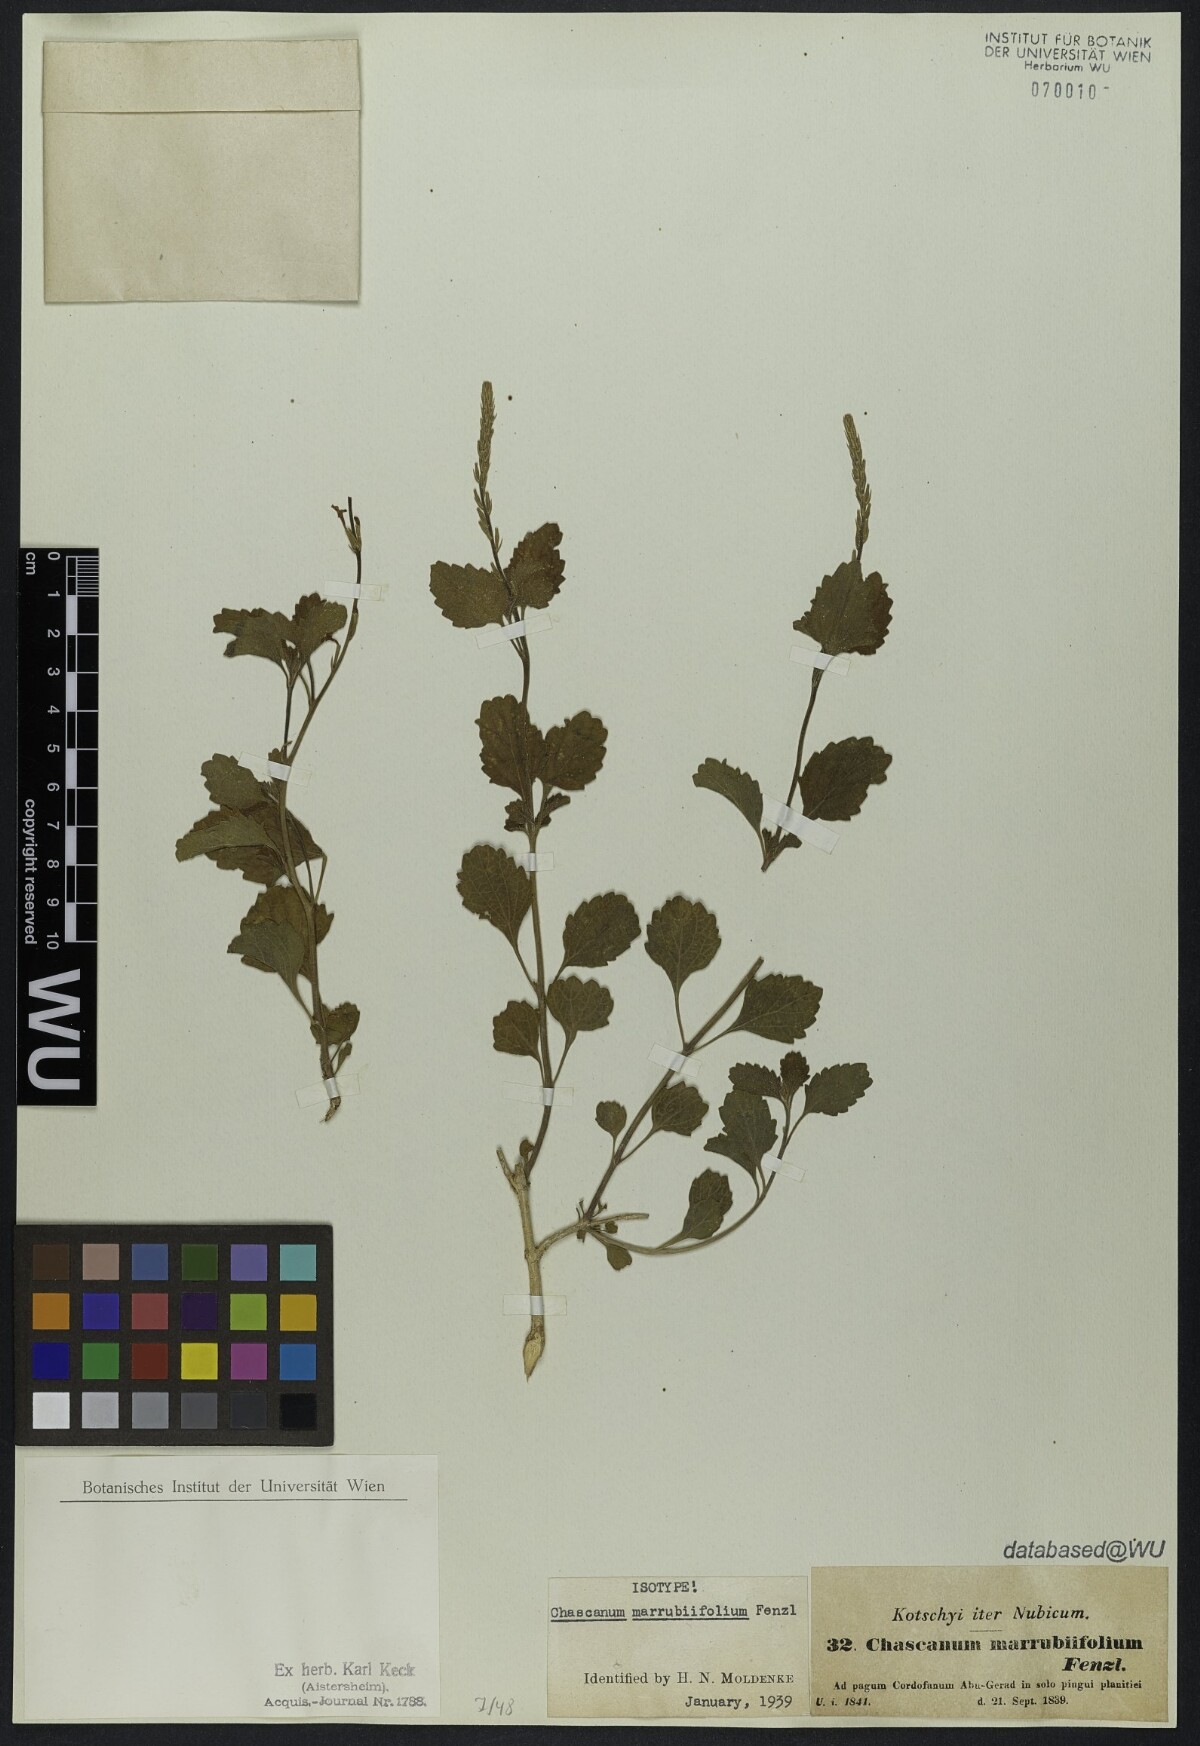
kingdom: Plantae
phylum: Tracheophyta
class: Magnoliopsida
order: Lamiales
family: Verbenaceae
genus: Chascanum
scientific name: Chascanum marrubiifolium
